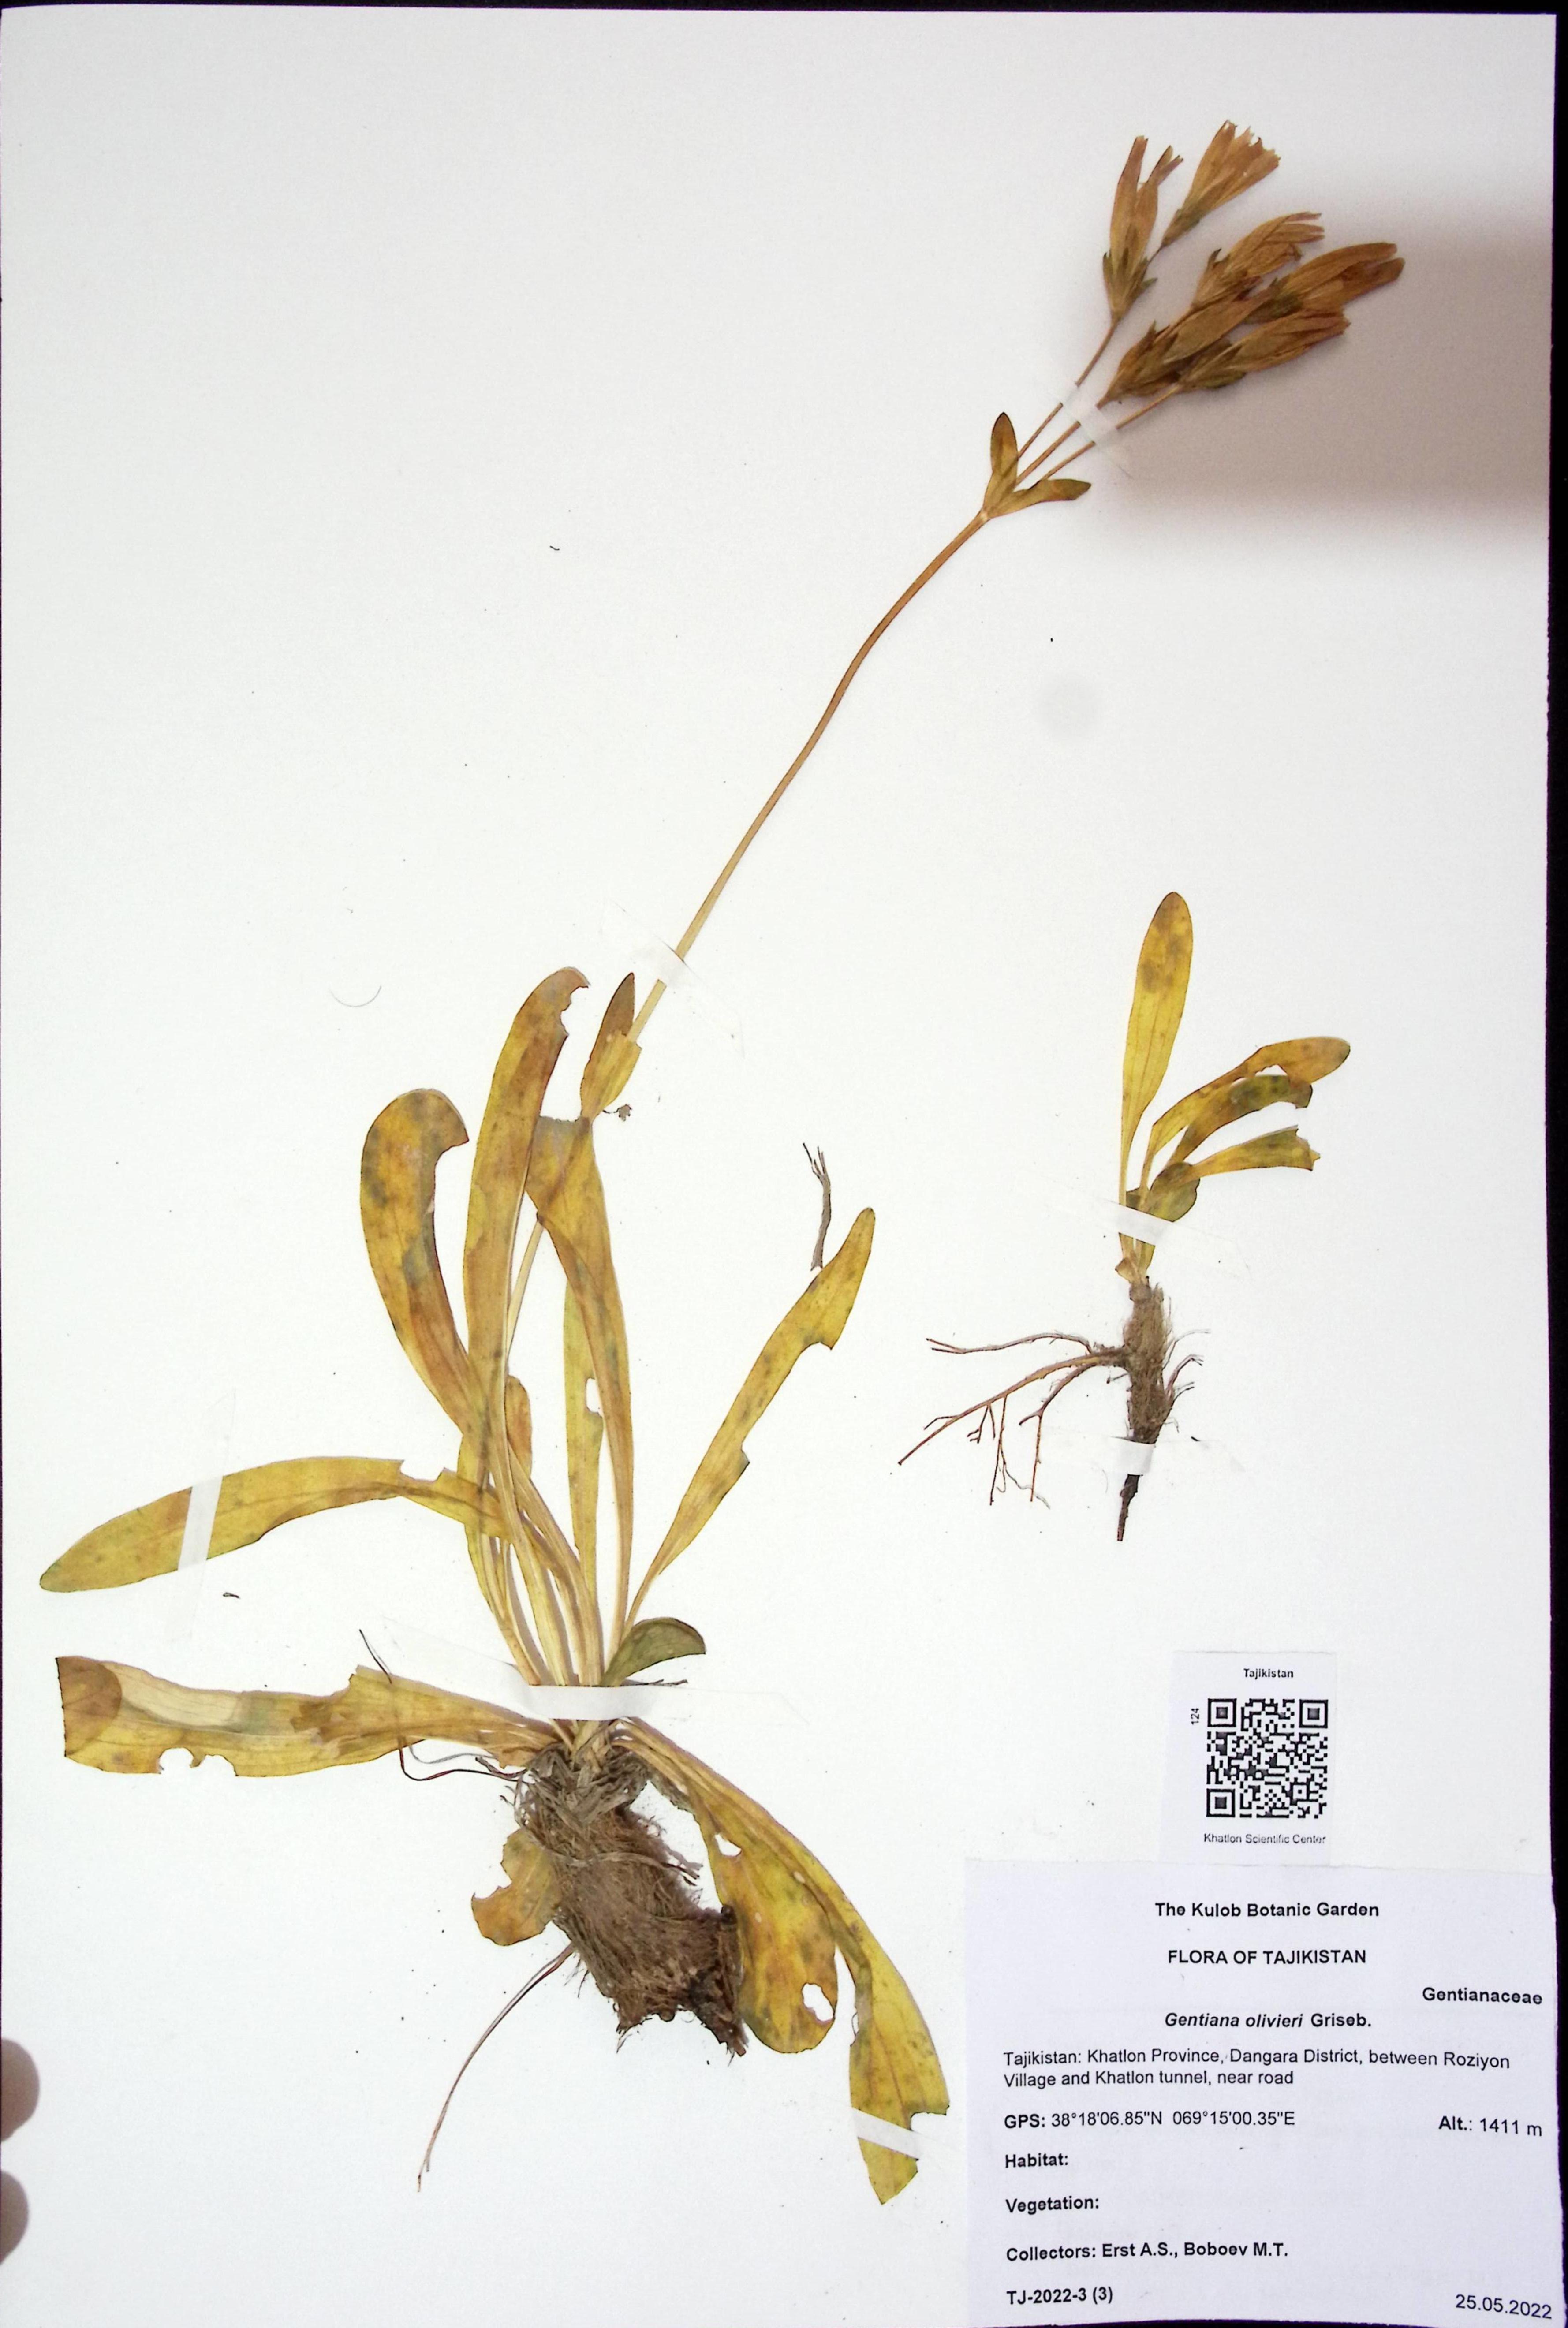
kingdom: Plantae
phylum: Tracheophyta
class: Magnoliopsida
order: Gentianales
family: Gentianaceae
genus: Gentiana
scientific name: Gentiana olivieri
